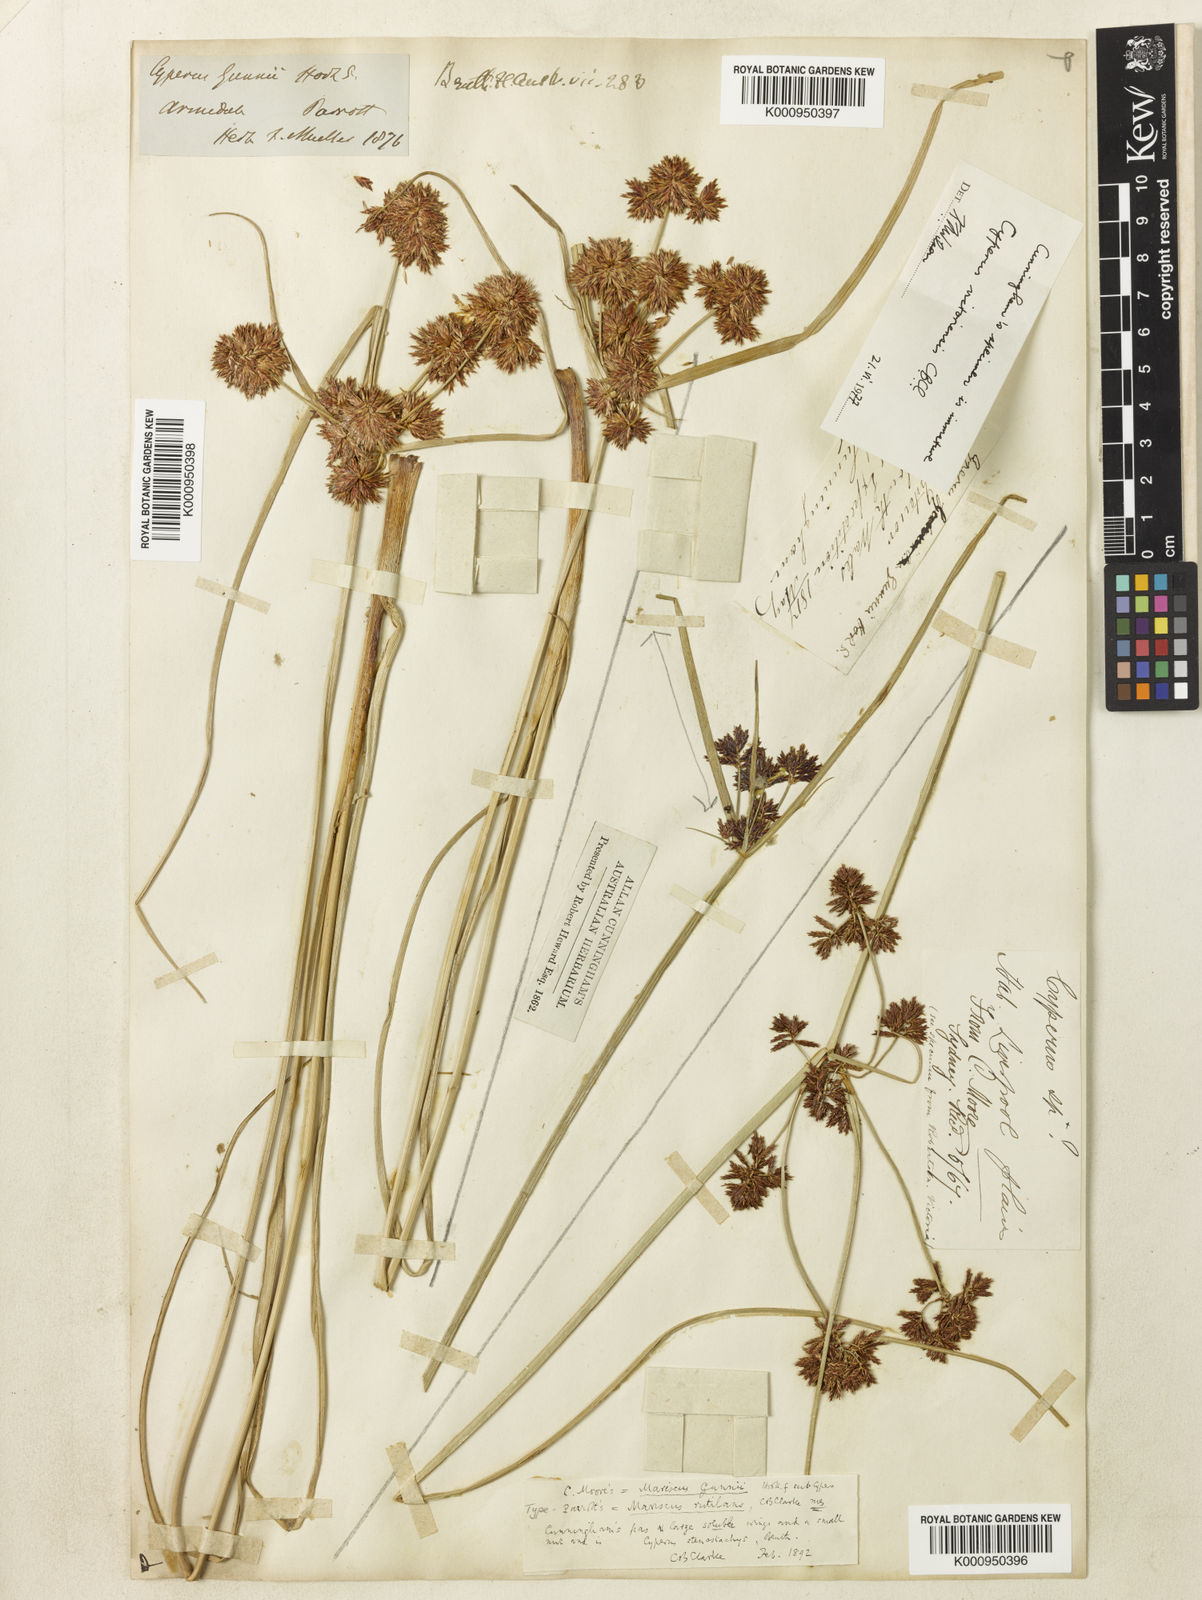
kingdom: Plantae
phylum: Tracheophyta
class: Liliopsida
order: Poales
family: Cyperaceae
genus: Cyperus
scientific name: Cyperus lhotskyanus
